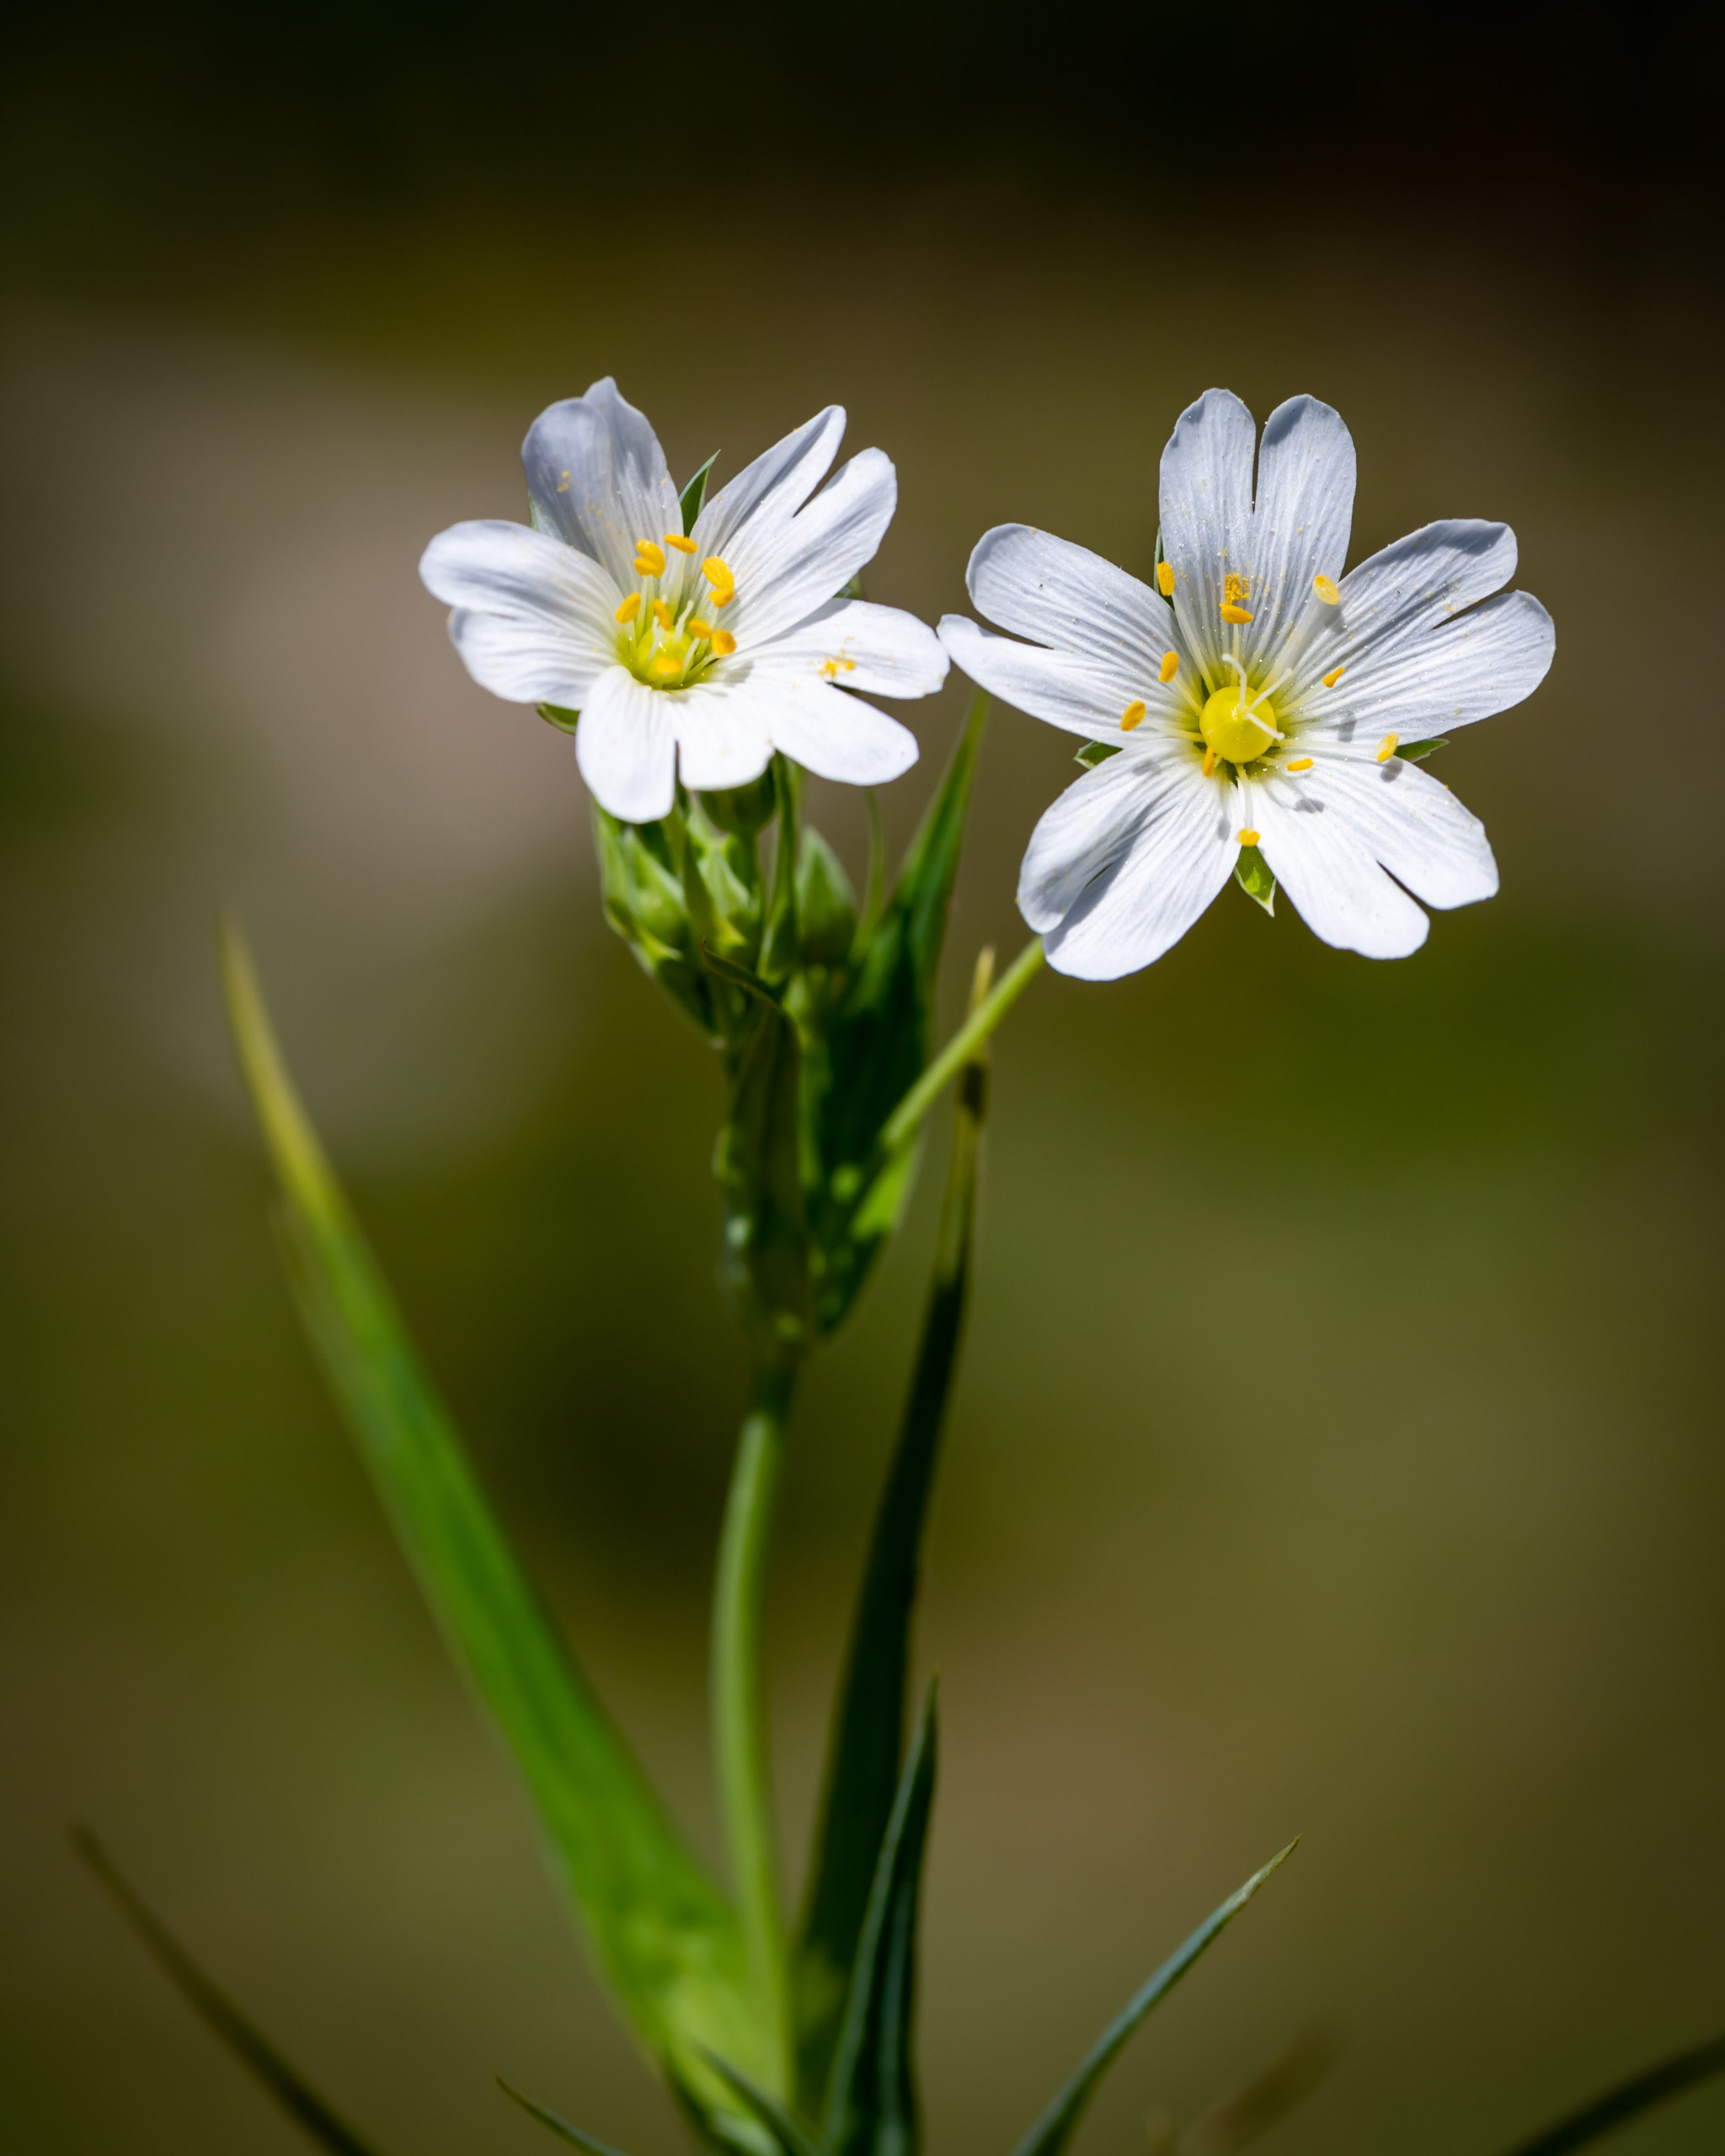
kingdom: Plantae
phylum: Tracheophyta
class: Magnoliopsida
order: Caryophyllales
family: Caryophyllaceae
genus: Rabelera
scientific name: Rabelera holostea
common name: Stor fladstjerne
